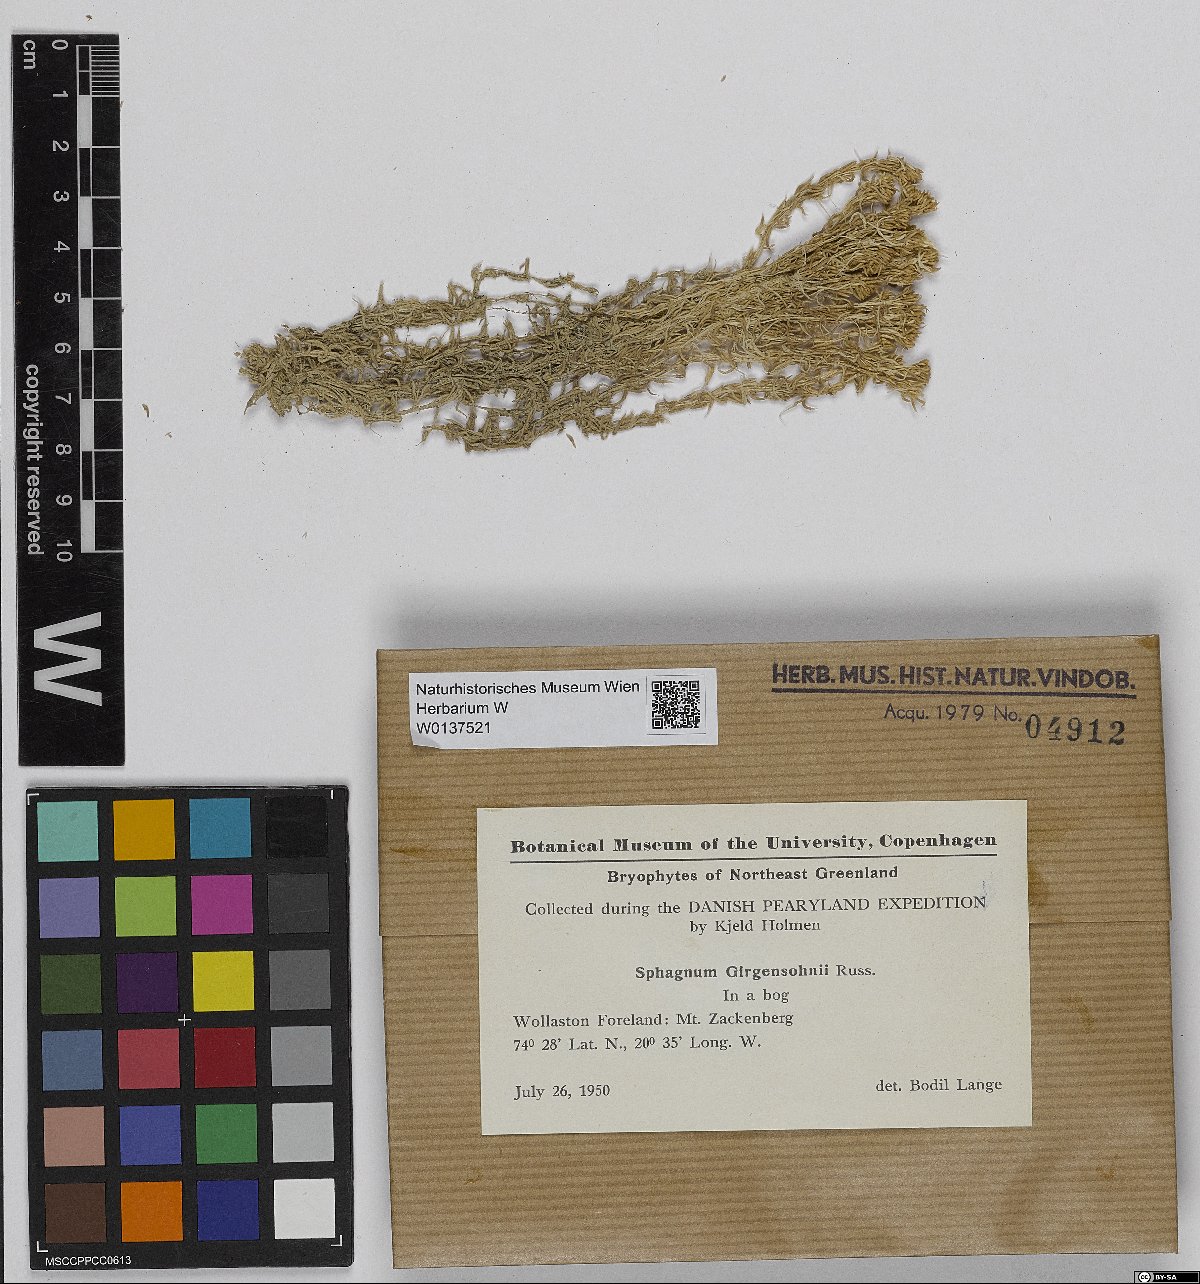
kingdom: Plantae
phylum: Bryophyta
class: Sphagnopsida
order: Sphagnales
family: Sphagnaceae
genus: Sphagnum
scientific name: Sphagnum girgensohnii
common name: Girgensohn's peat moss
